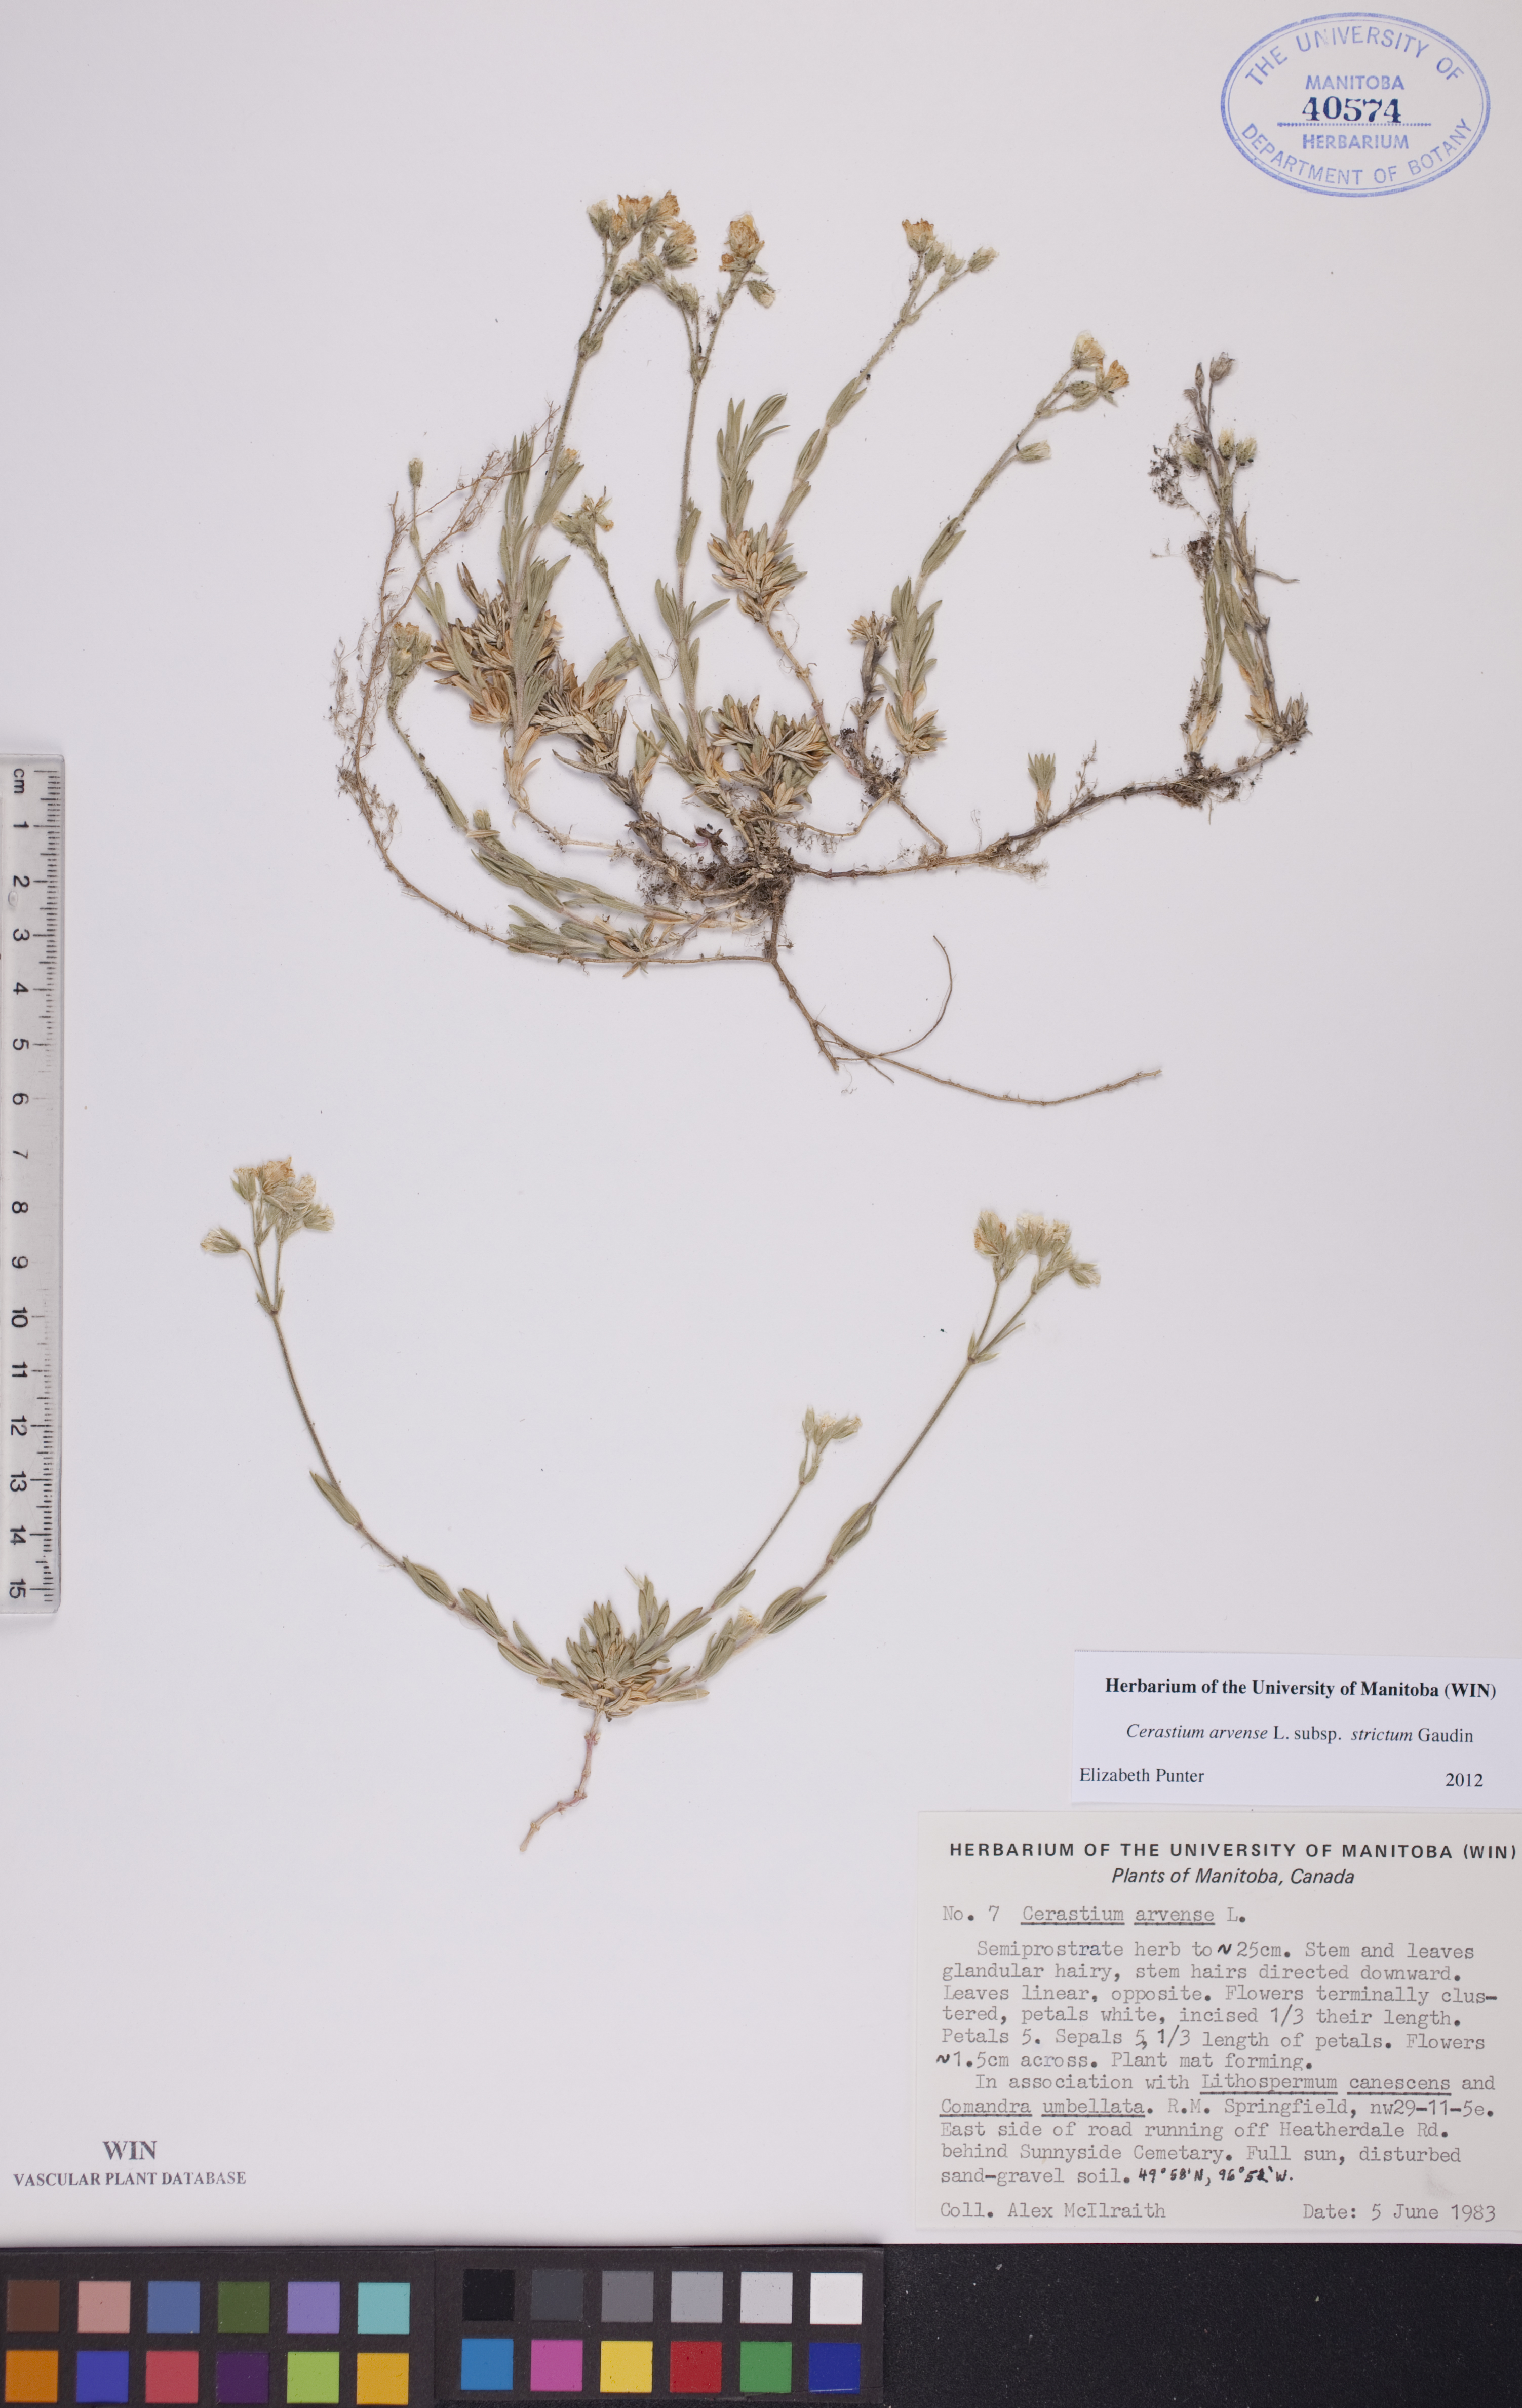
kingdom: Plantae
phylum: Tracheophyta
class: Magnoliopsida
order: Caryophyllales
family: Caryophyllaceae
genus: Cerastium
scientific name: Cerastium elongatum
